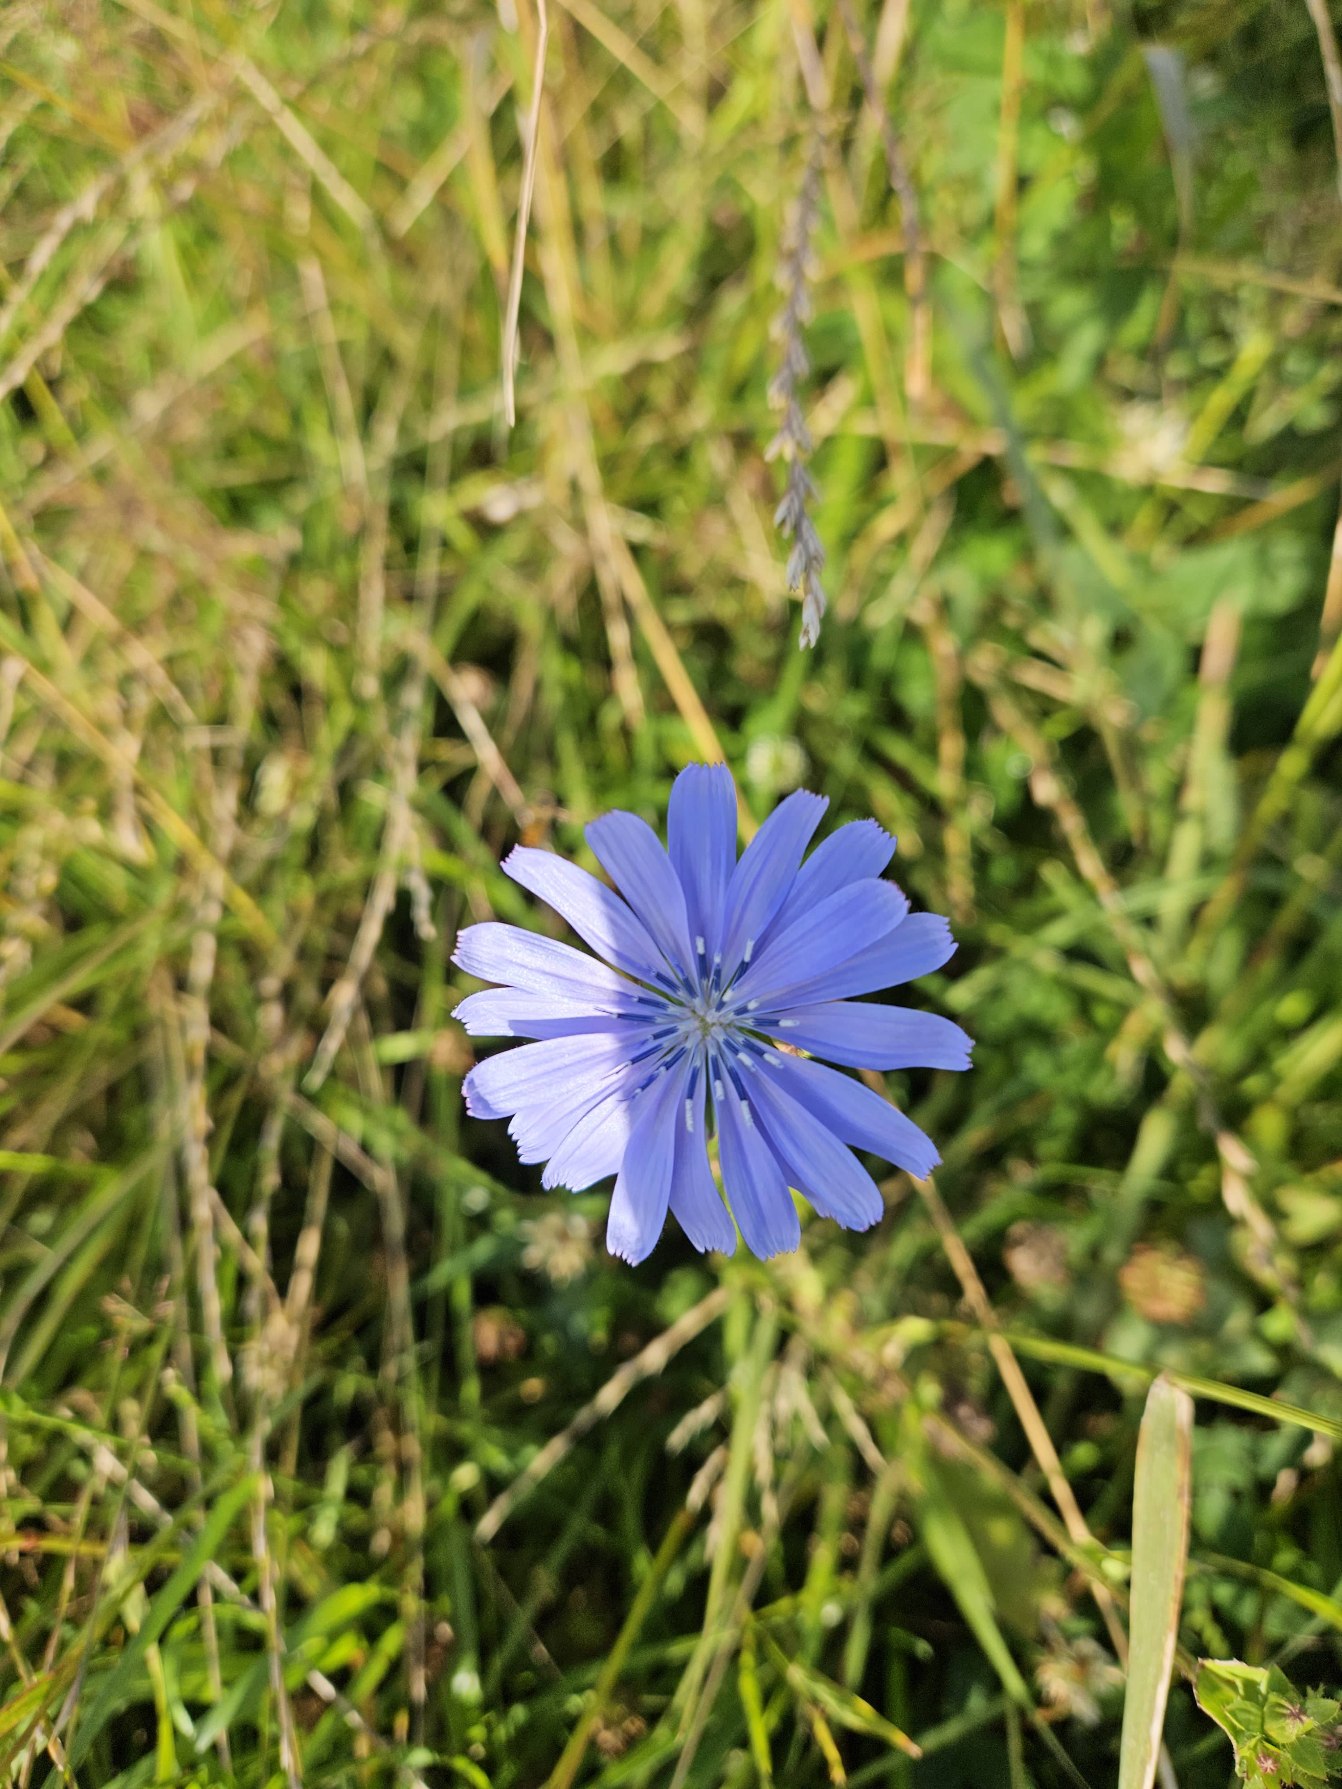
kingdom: Plantae
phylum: Tracheophyta
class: Magnoliopsida
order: Asterales
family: Asteraceae
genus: Cichorium
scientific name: Cichorium intybus
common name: Cikorie
